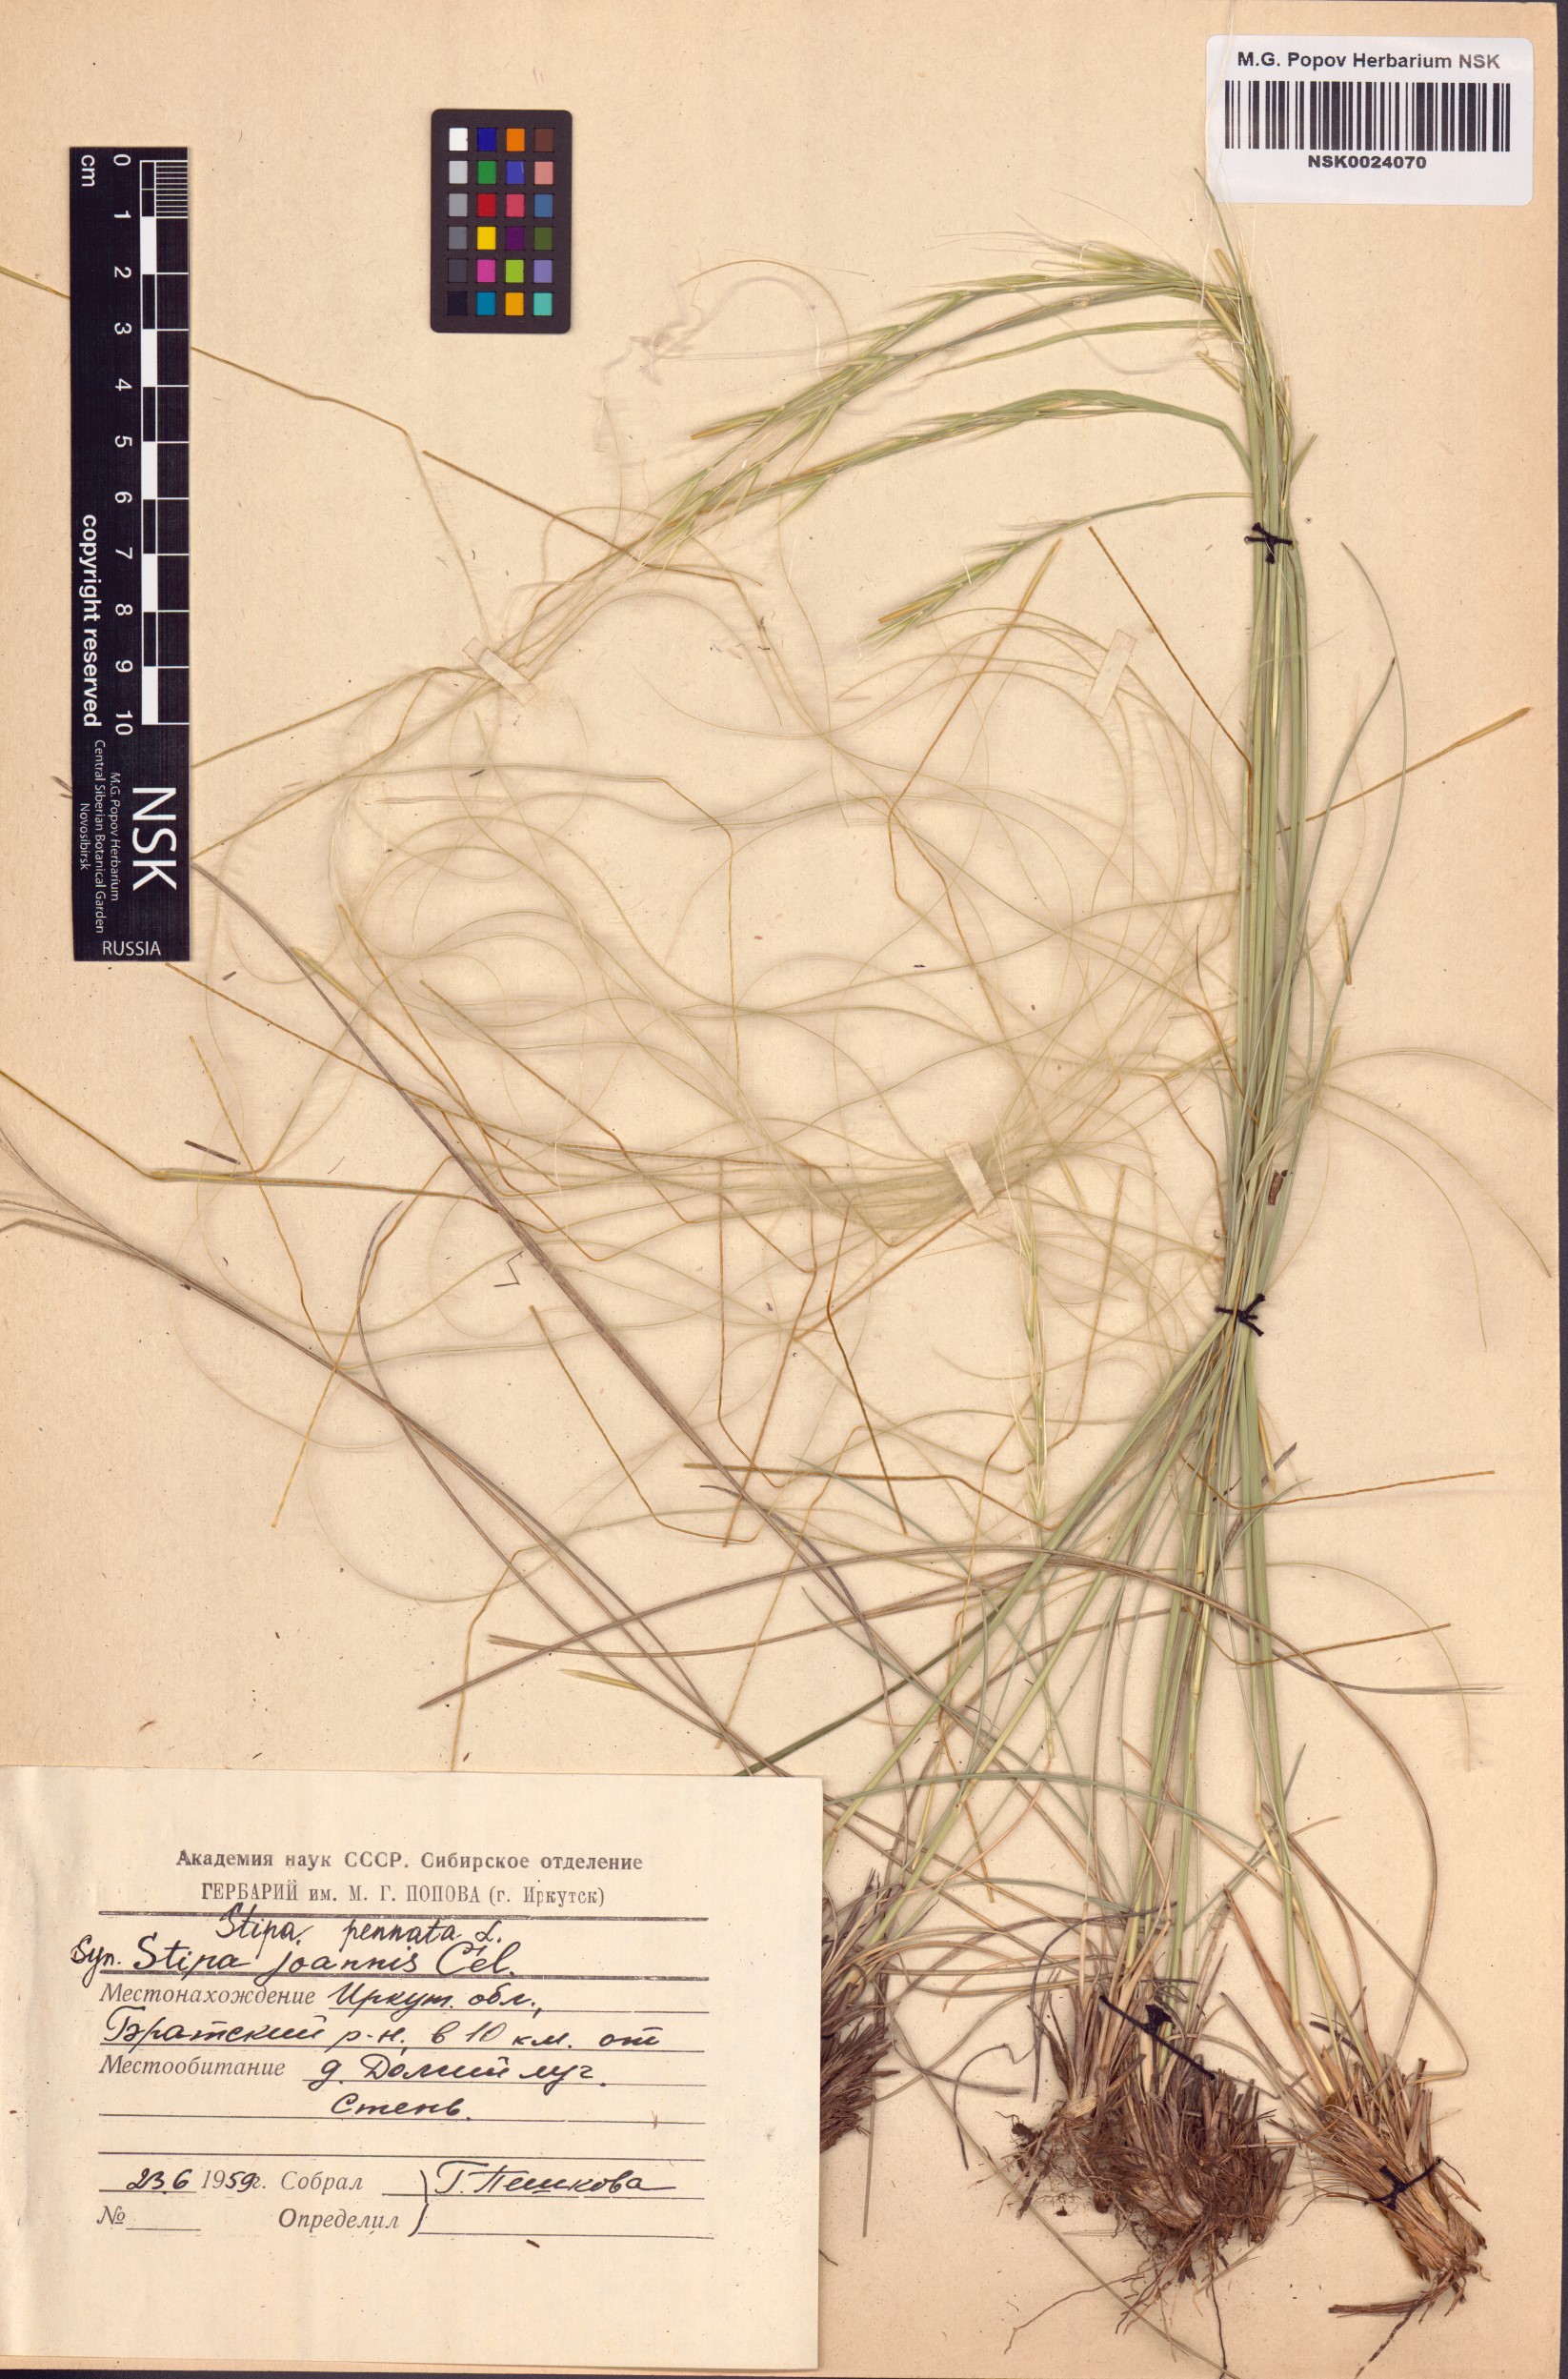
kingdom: Plantae
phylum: Tracheophyta
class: Liliopsida
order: Poales
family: Poaceae
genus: Stipa
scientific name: Stipa pennata
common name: European feather grass
